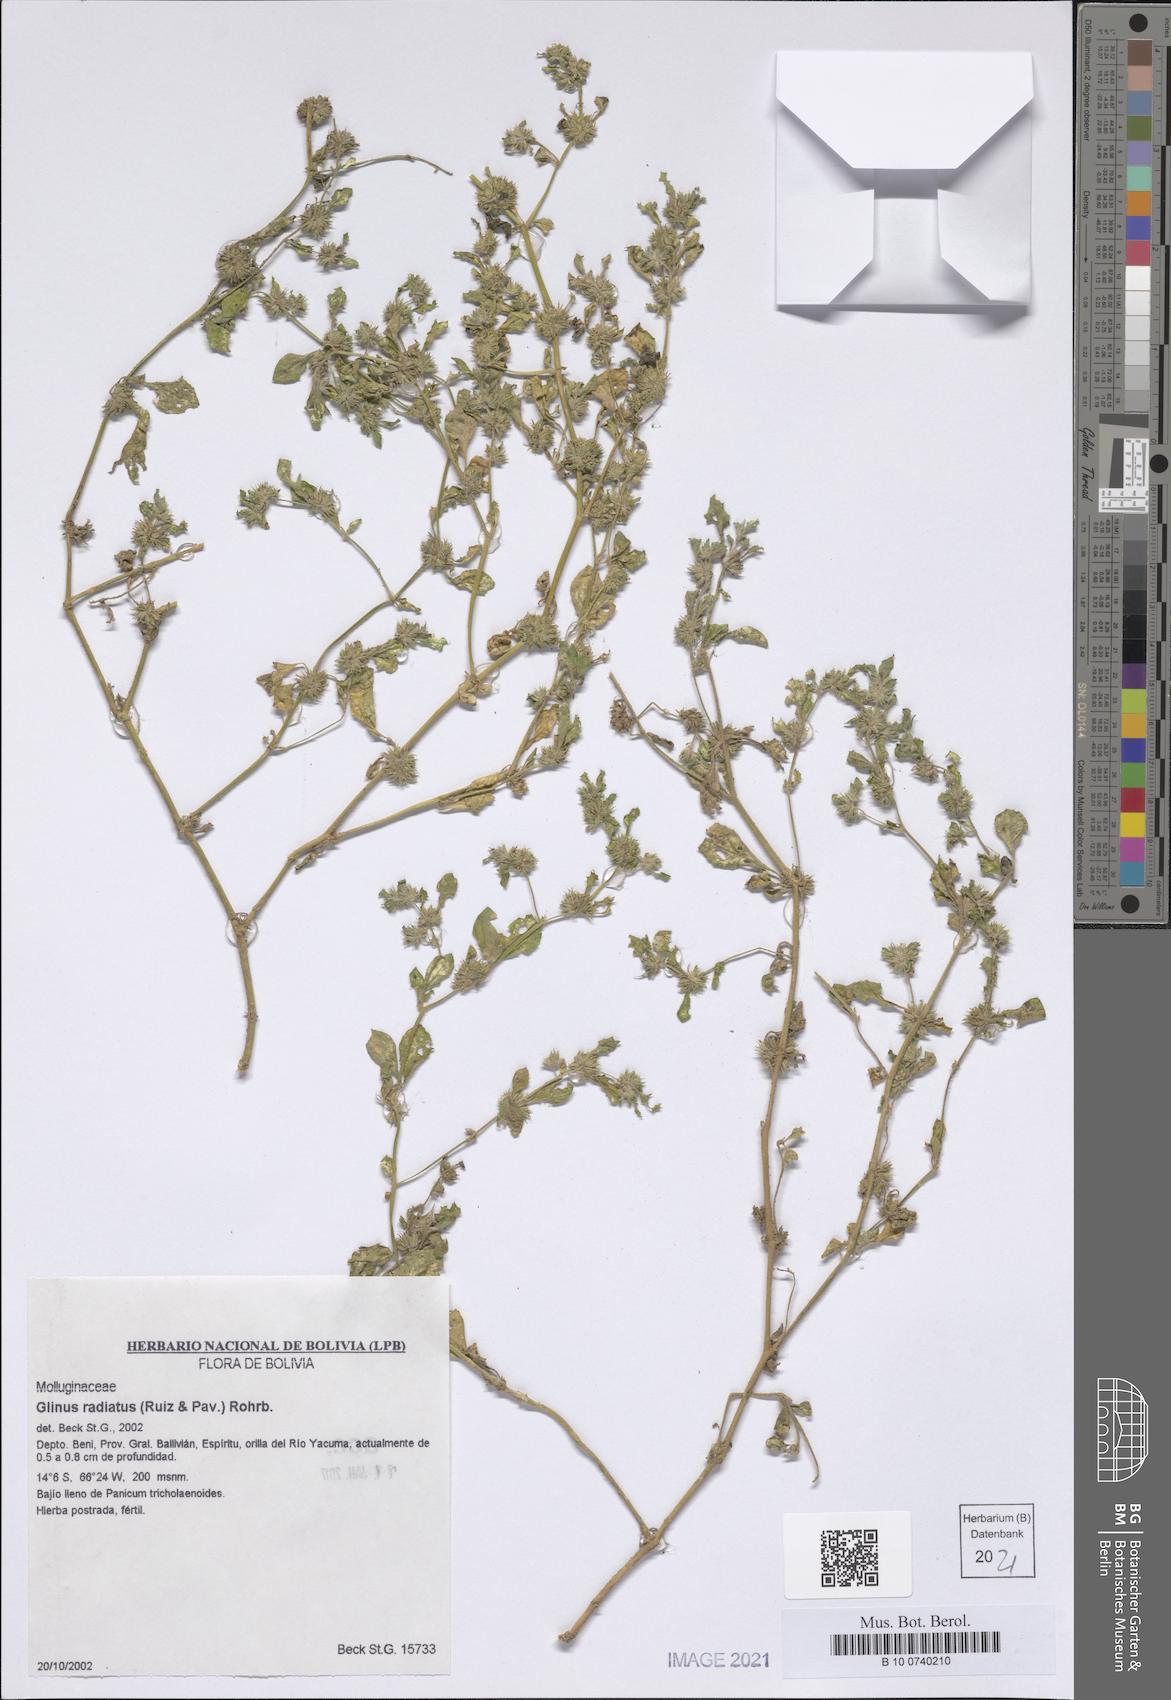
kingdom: Plantae
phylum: Tracheophyta
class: Magnoliopsida
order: Caryophyllales
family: Molluginaceae
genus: Glinus
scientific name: Glinus radiatus
